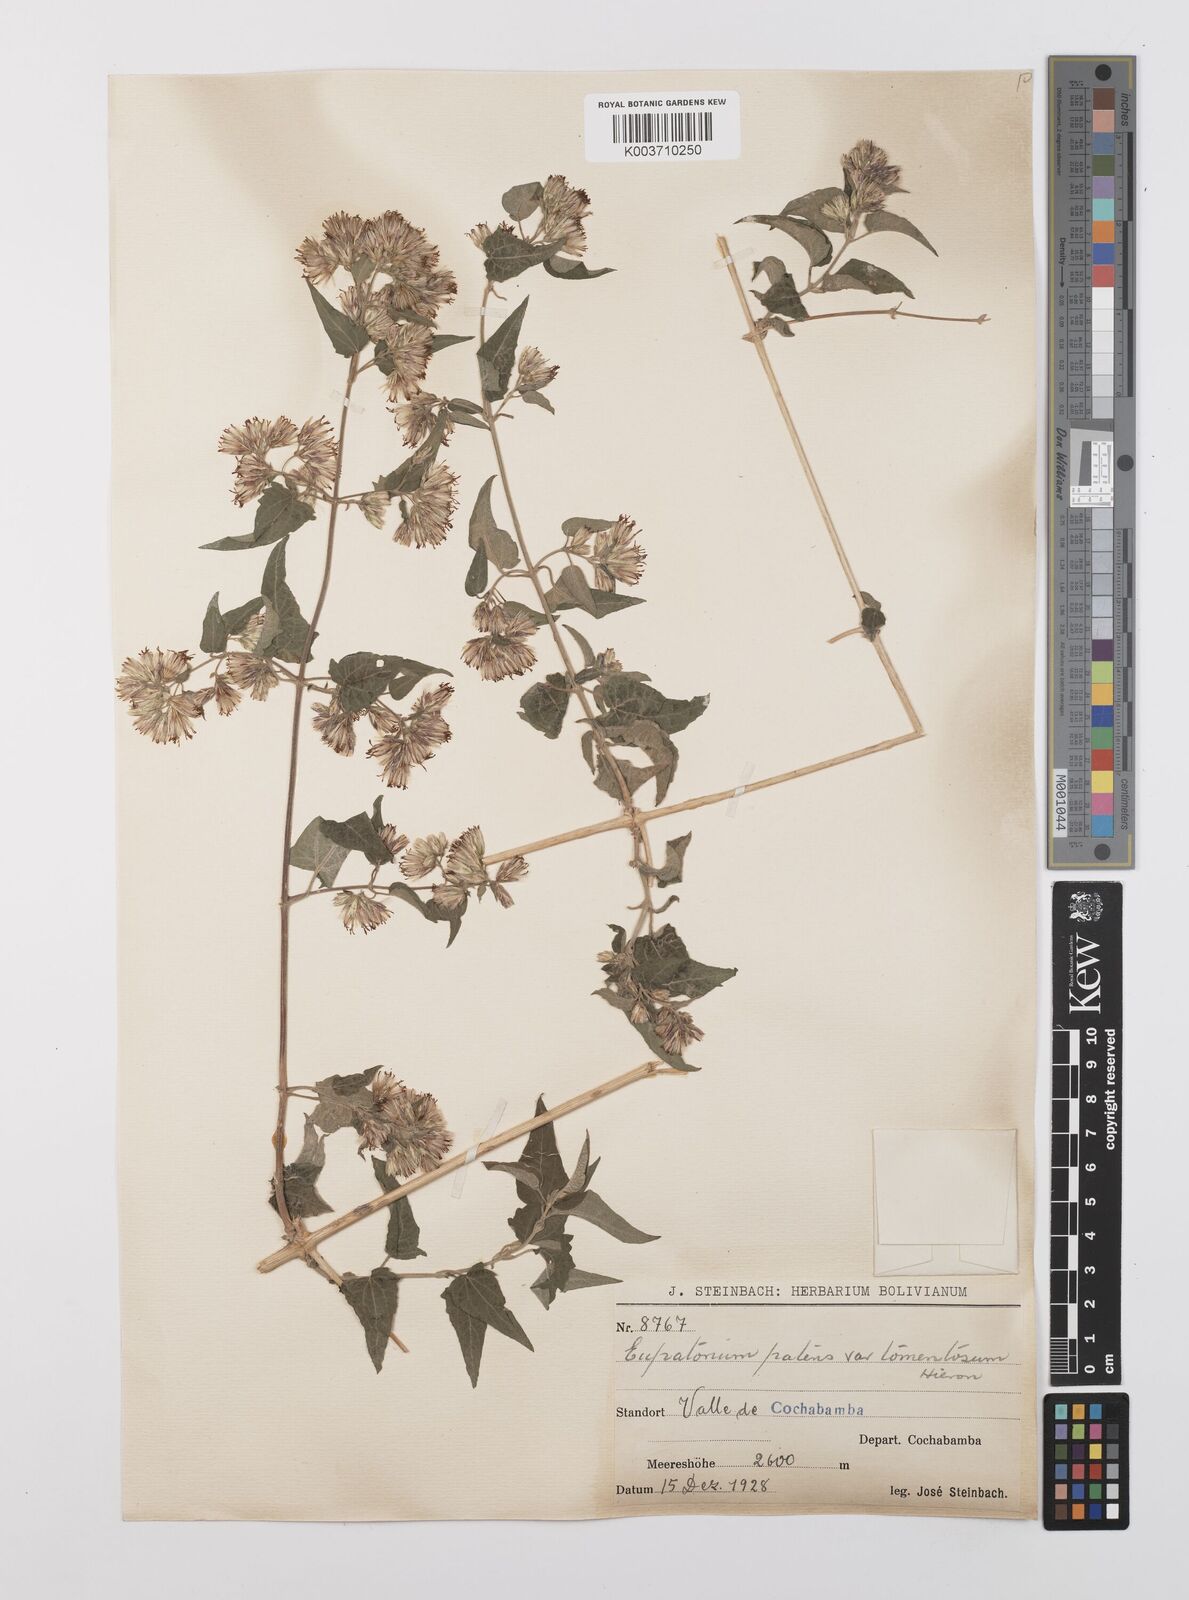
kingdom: Plantae
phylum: Tracheophyta
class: Magnoliopsida
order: Asterales
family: Asteraceae
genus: Austrobrickellia
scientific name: Austrobrickellia patens
